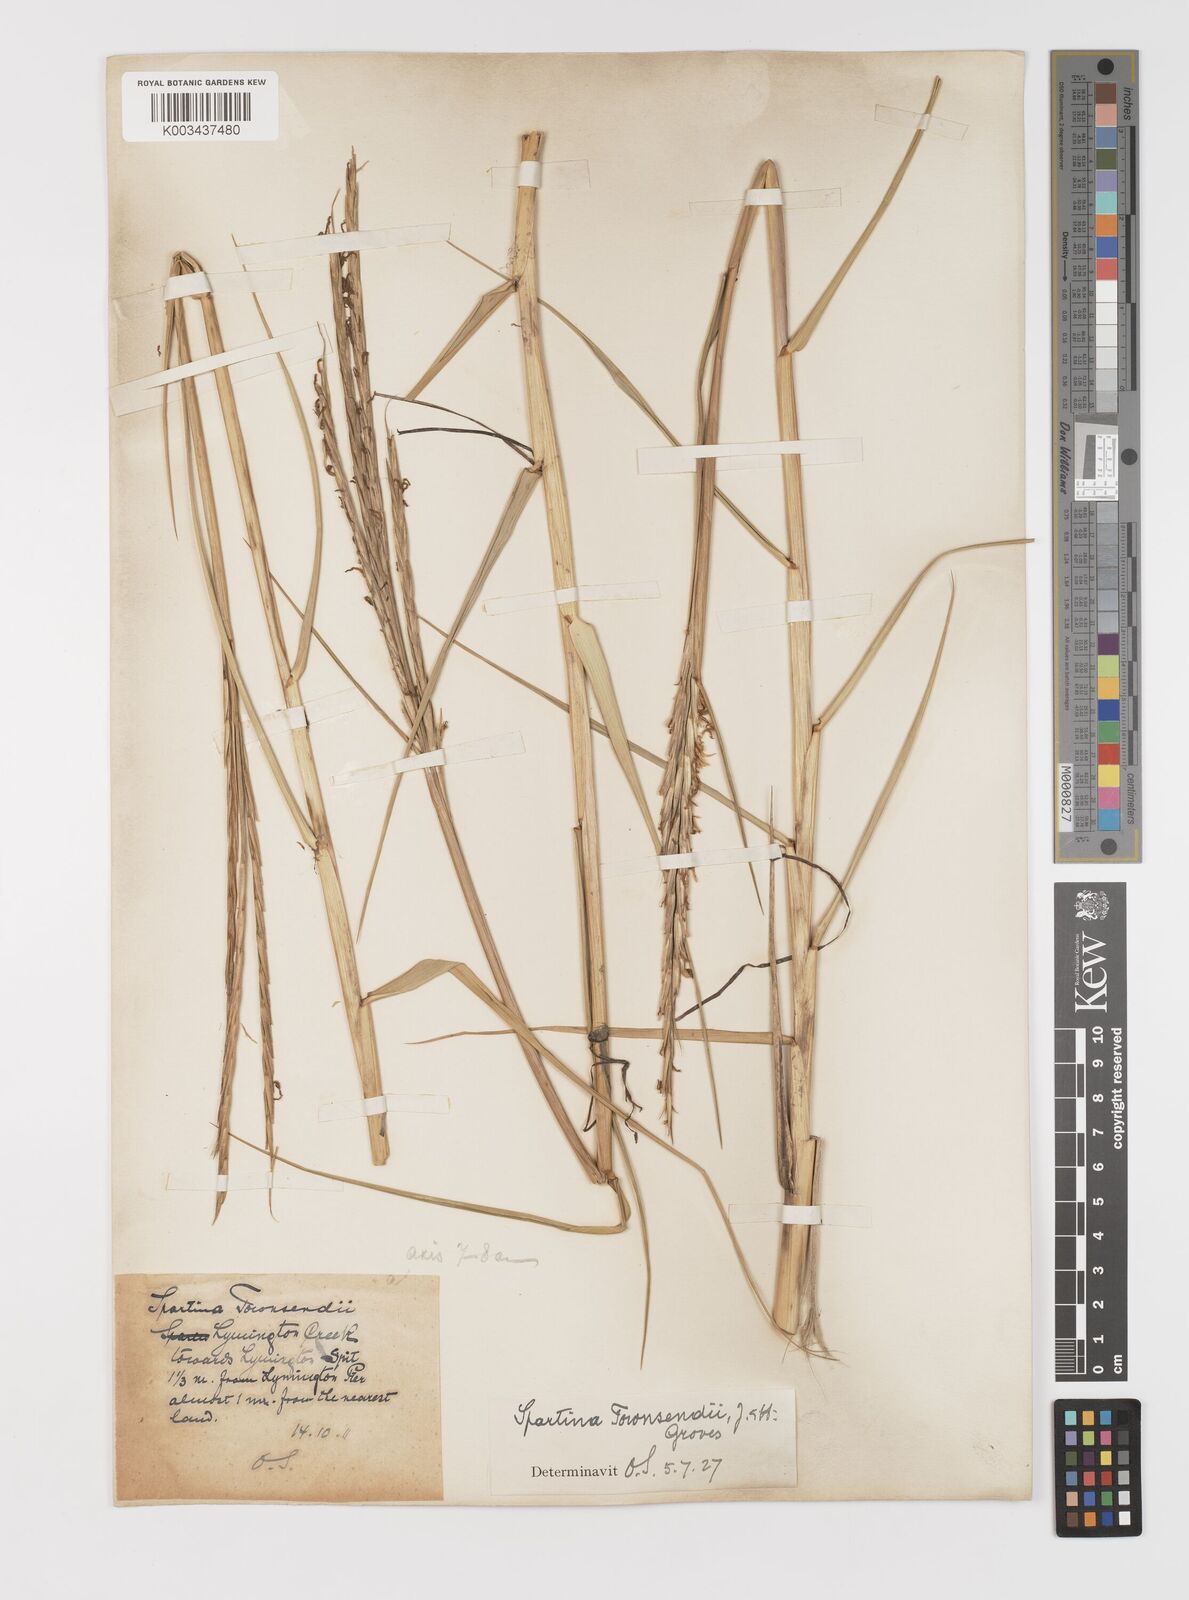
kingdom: Plantae
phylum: Tracheophyta
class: Liliopsida
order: Poales
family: Poaceae
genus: Sporobolus
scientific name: Sporobolus anglicus
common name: English cordgrass
